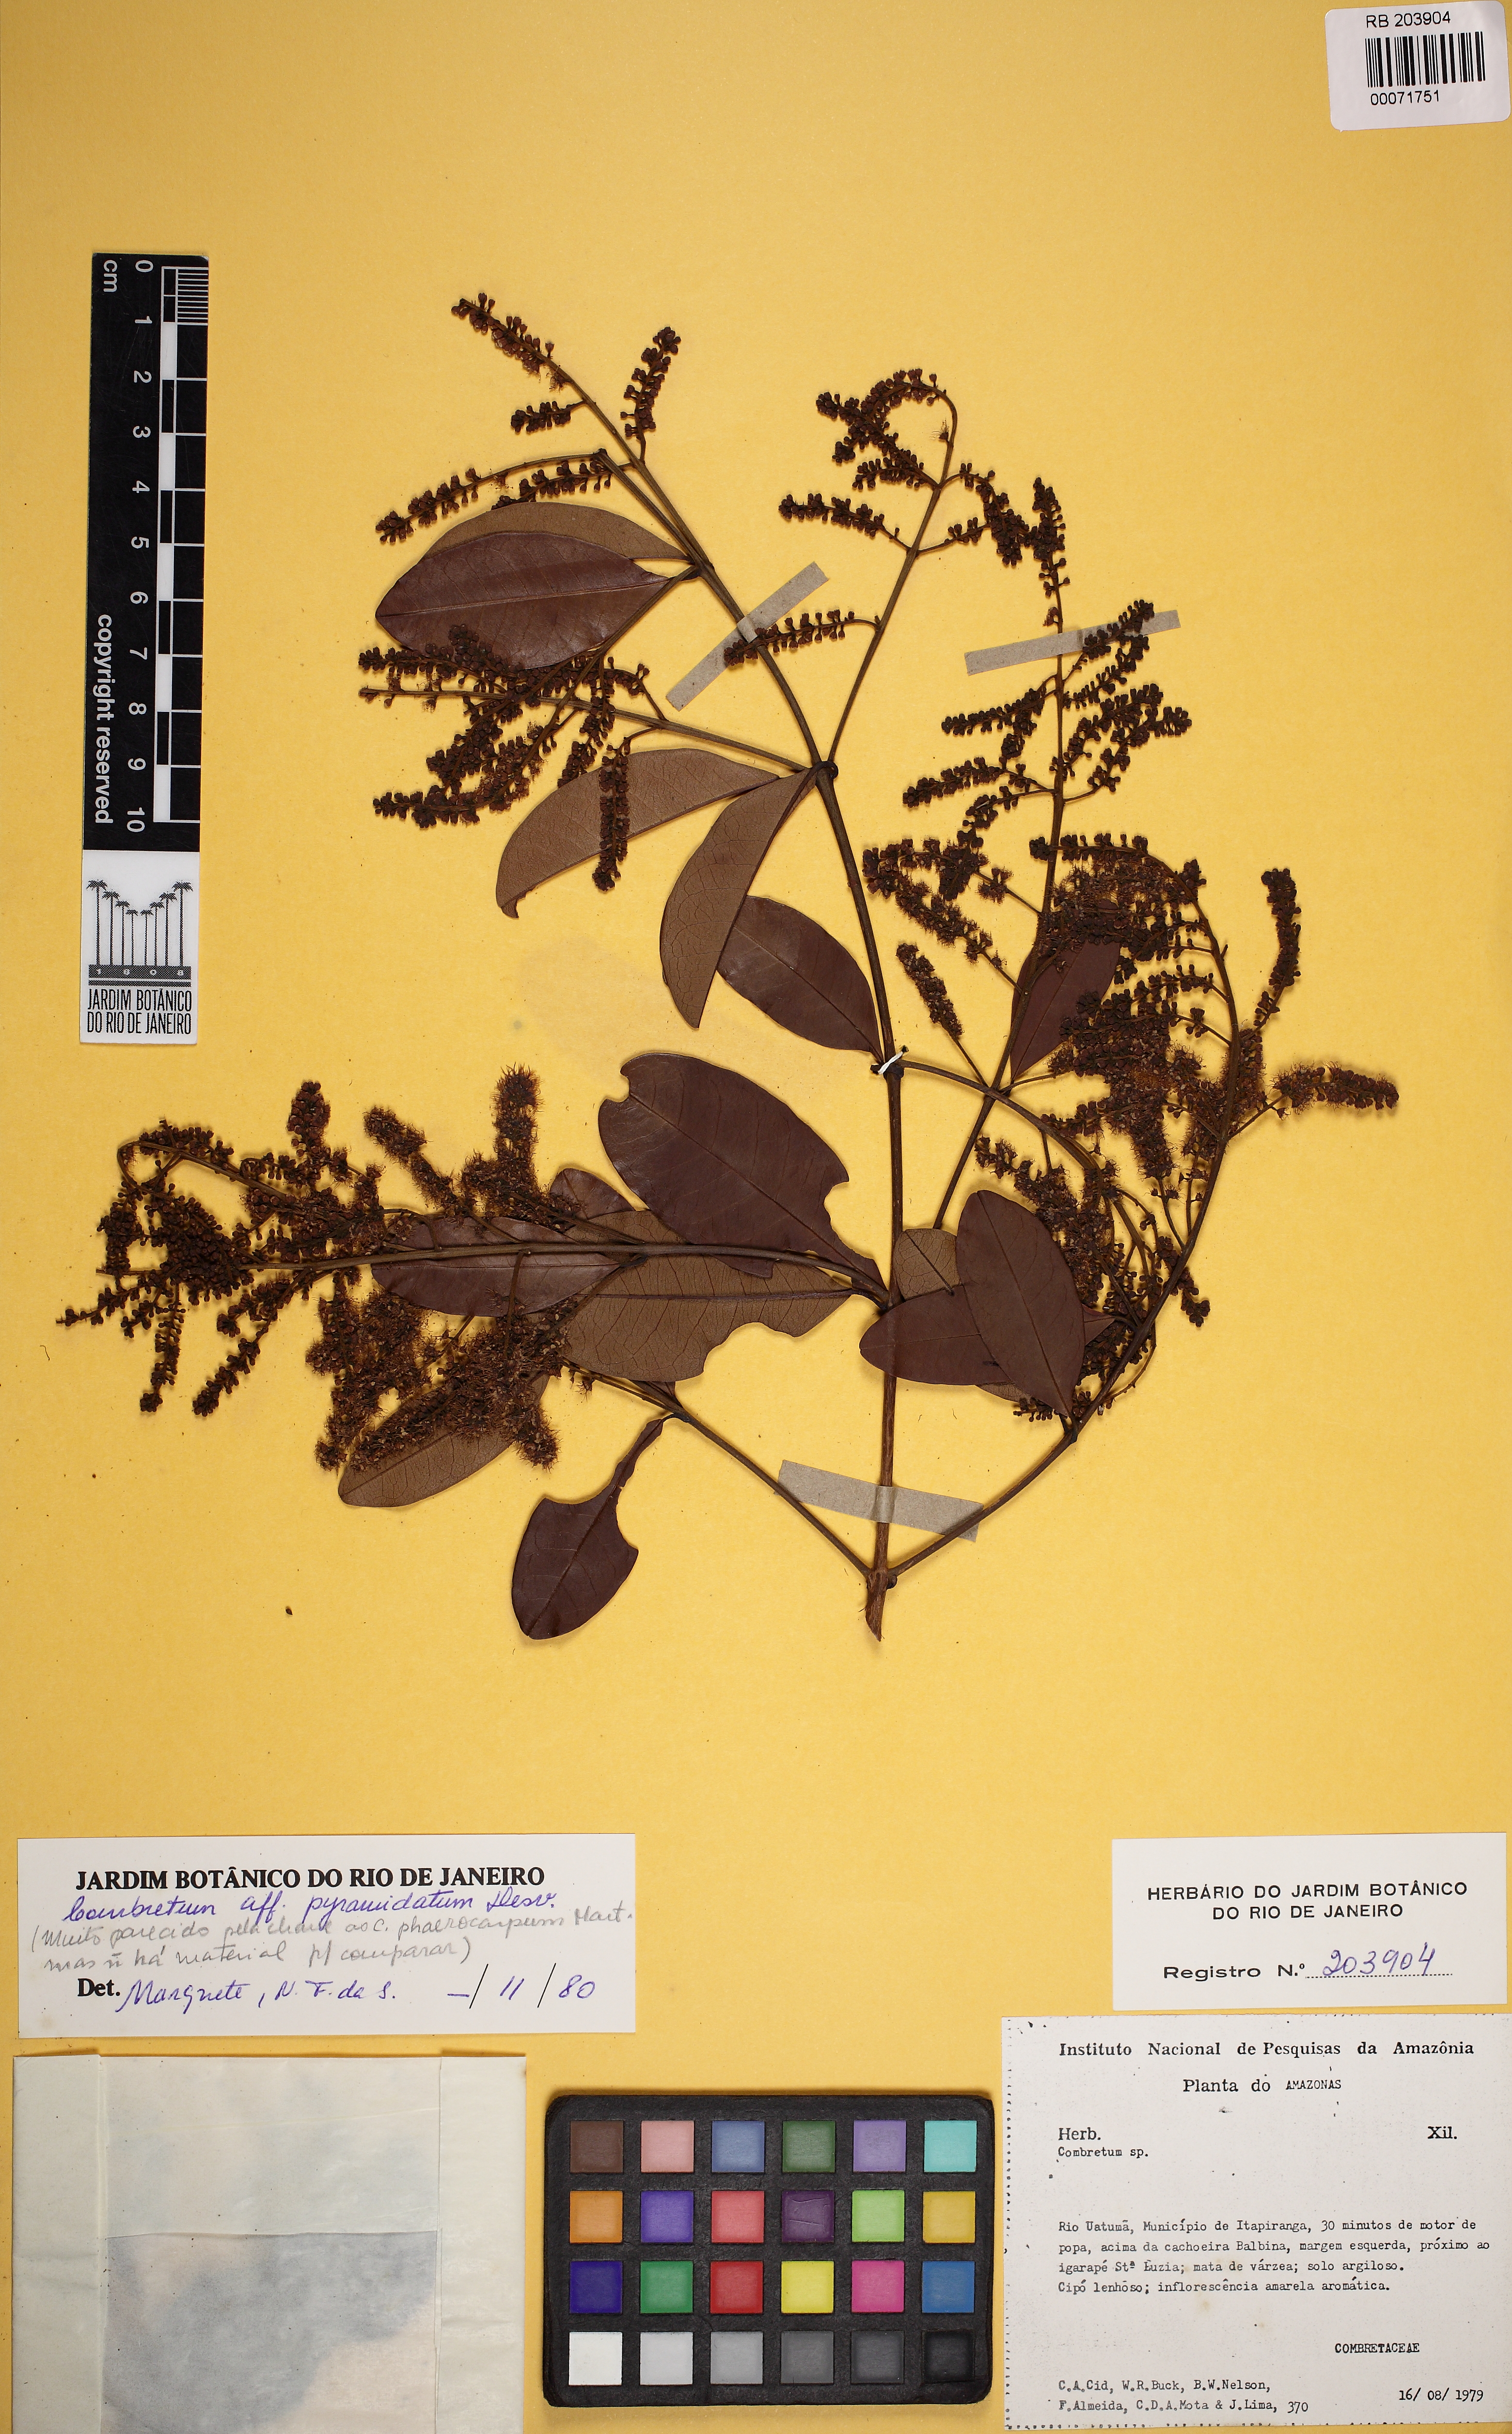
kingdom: Plantae
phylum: Tracheophyta
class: Magnoliopsida
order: Myrtales
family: Combretaceae
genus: Combretum
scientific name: Combretum pyramidatum
